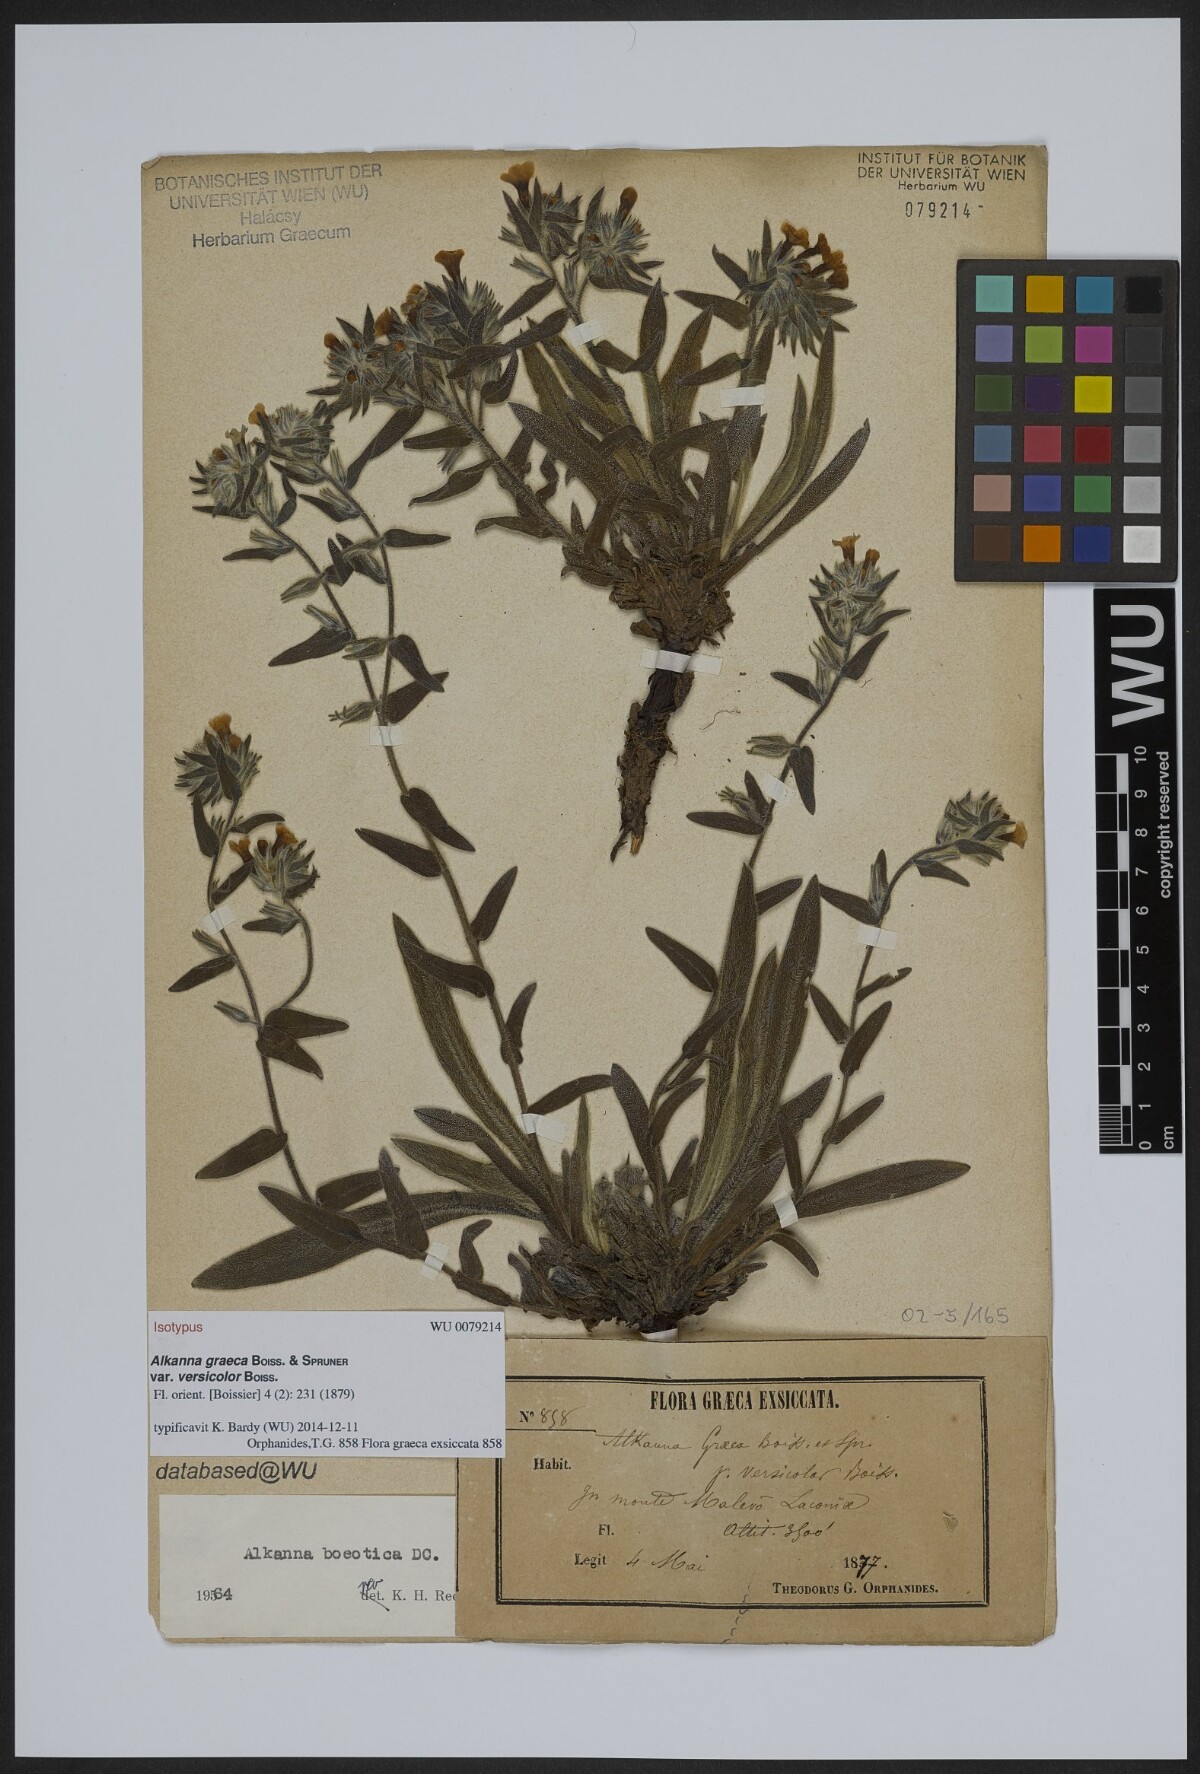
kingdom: Plantae
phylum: Tracheophyta
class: Magnoliopsida
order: Boraginales
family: Boraginaceae
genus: Alkanna
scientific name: Alkanna graeca
